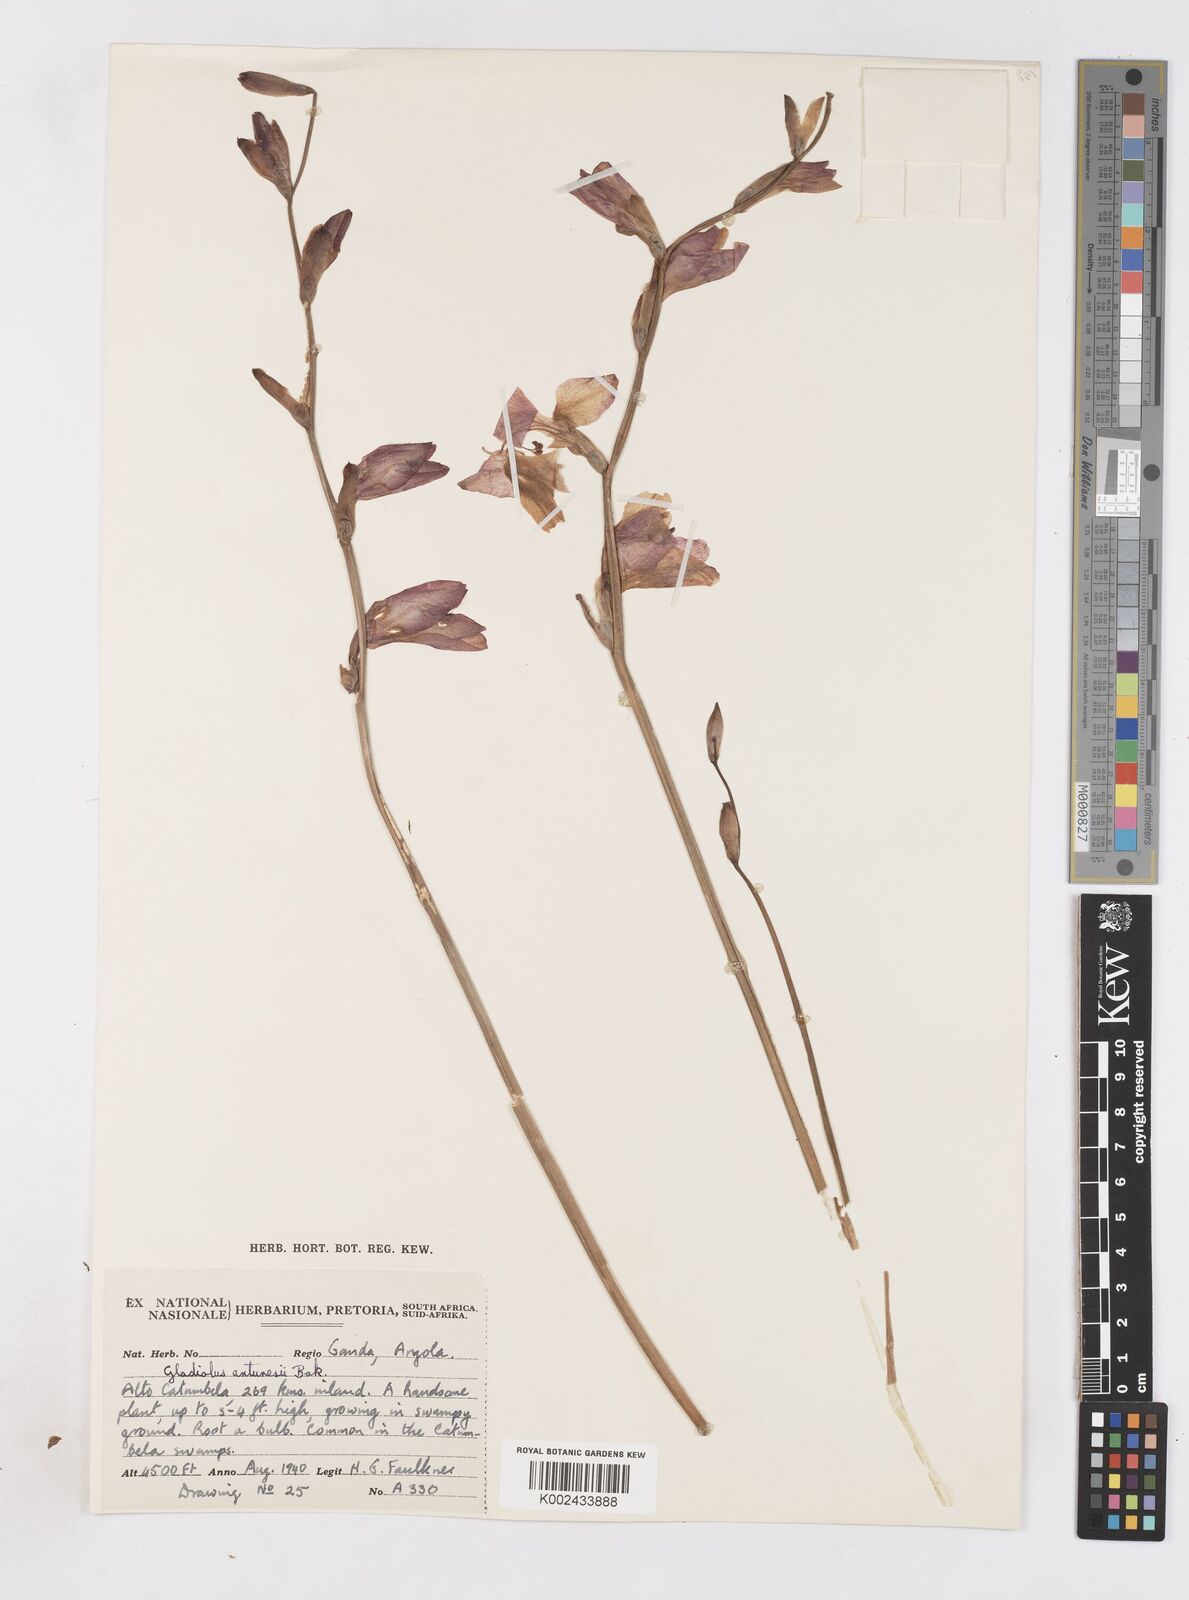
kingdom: Plantae
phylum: Tracheophyta
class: Liliopsida
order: Asparagales
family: Iridaceae
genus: Gladiolus
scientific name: Gladiolus laxiflorus
